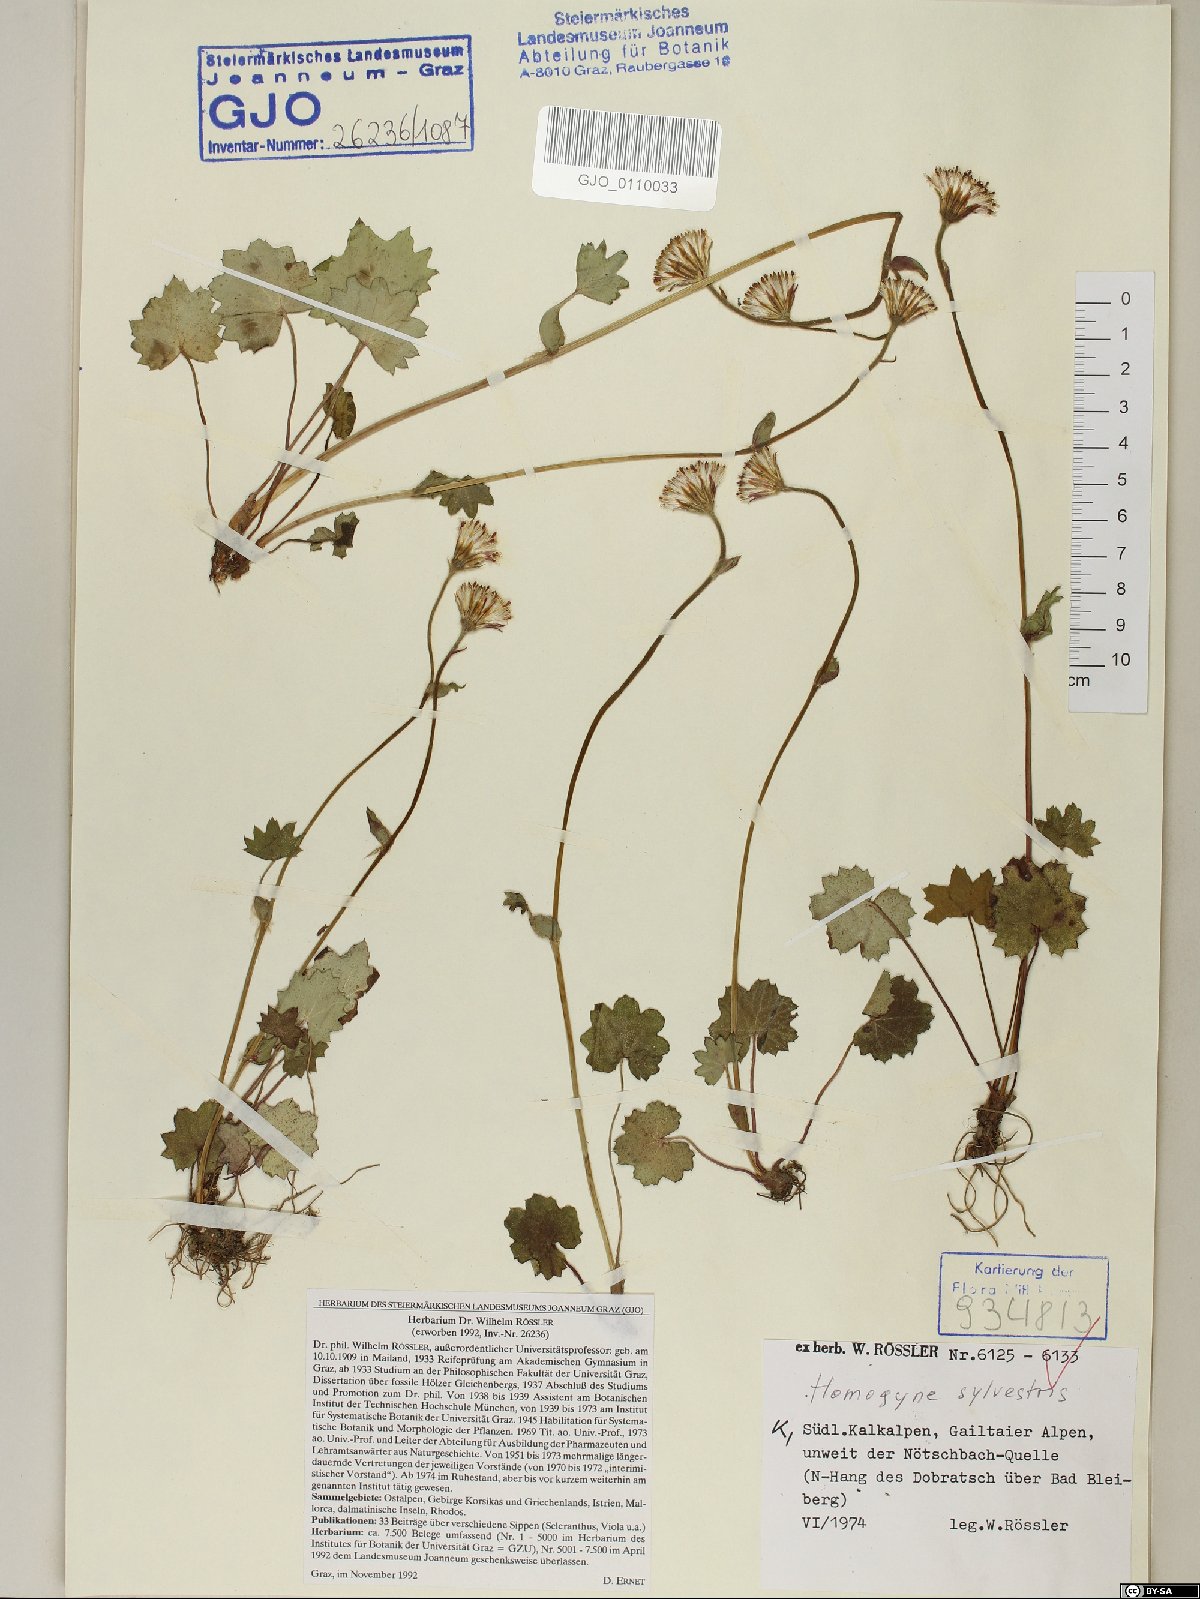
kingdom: Plantae
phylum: Tracheophyta
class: Magnoliopsida
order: Asterales
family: Asteraceae
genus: Homogyne
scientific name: Homogyne sylvestris
